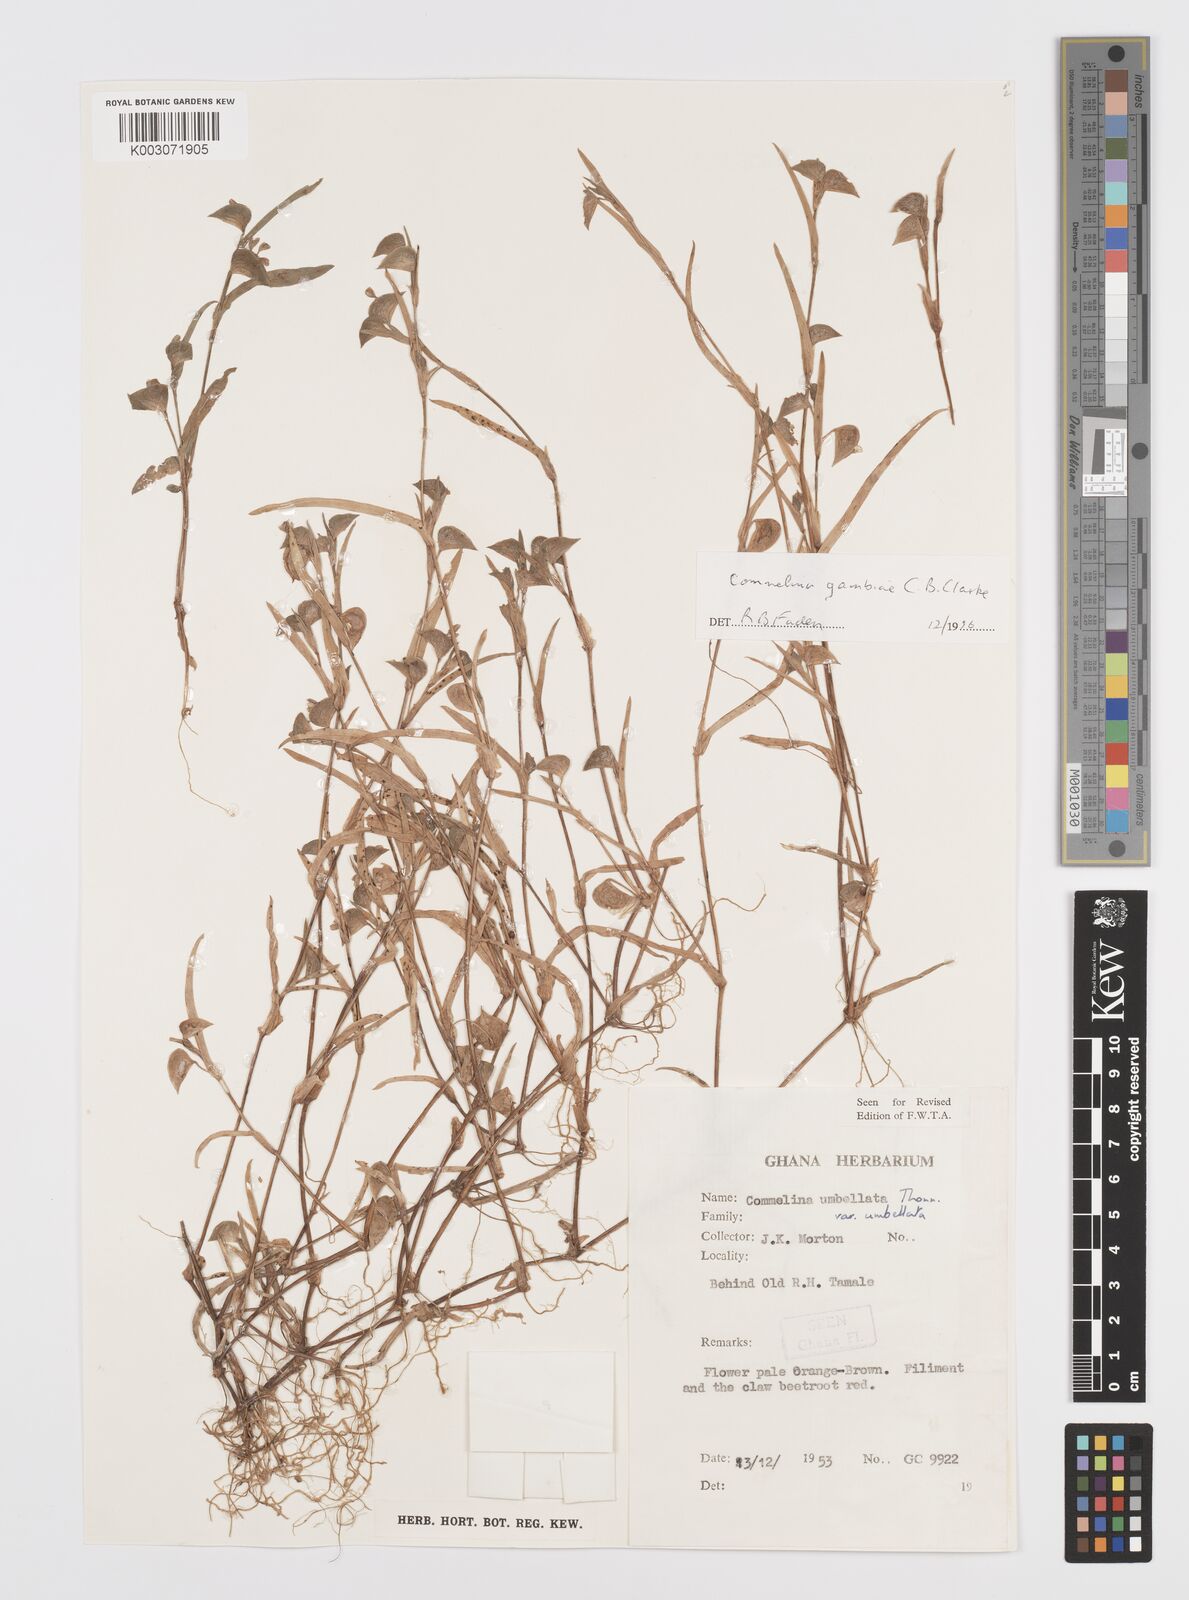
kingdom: Plantae
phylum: Tracheophyta
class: Liliopsida
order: Commelinales
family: Commelinaceae
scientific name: Commelinaceae
